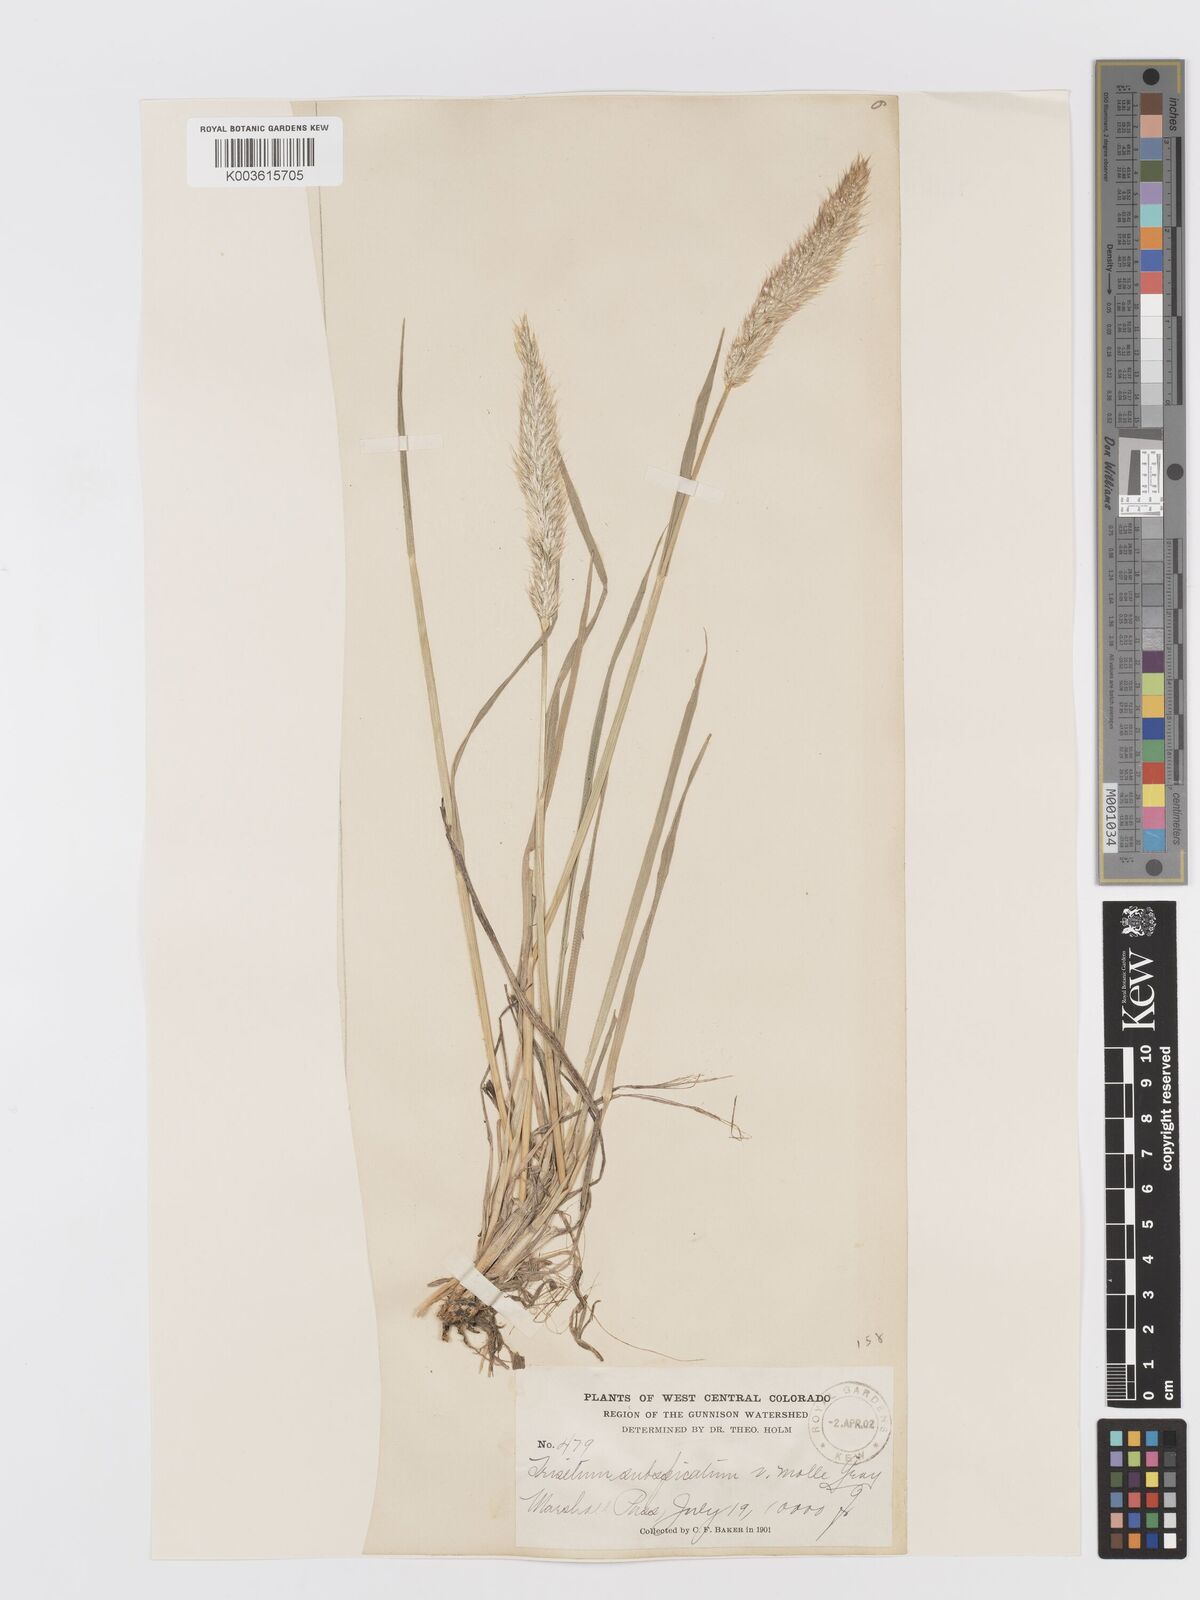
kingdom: Plantae
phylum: Tracheophyta
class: Liliopsida
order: Poales
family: Poaceae
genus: Koeleria
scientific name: Koeleria spicata
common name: Mountain trisetum
